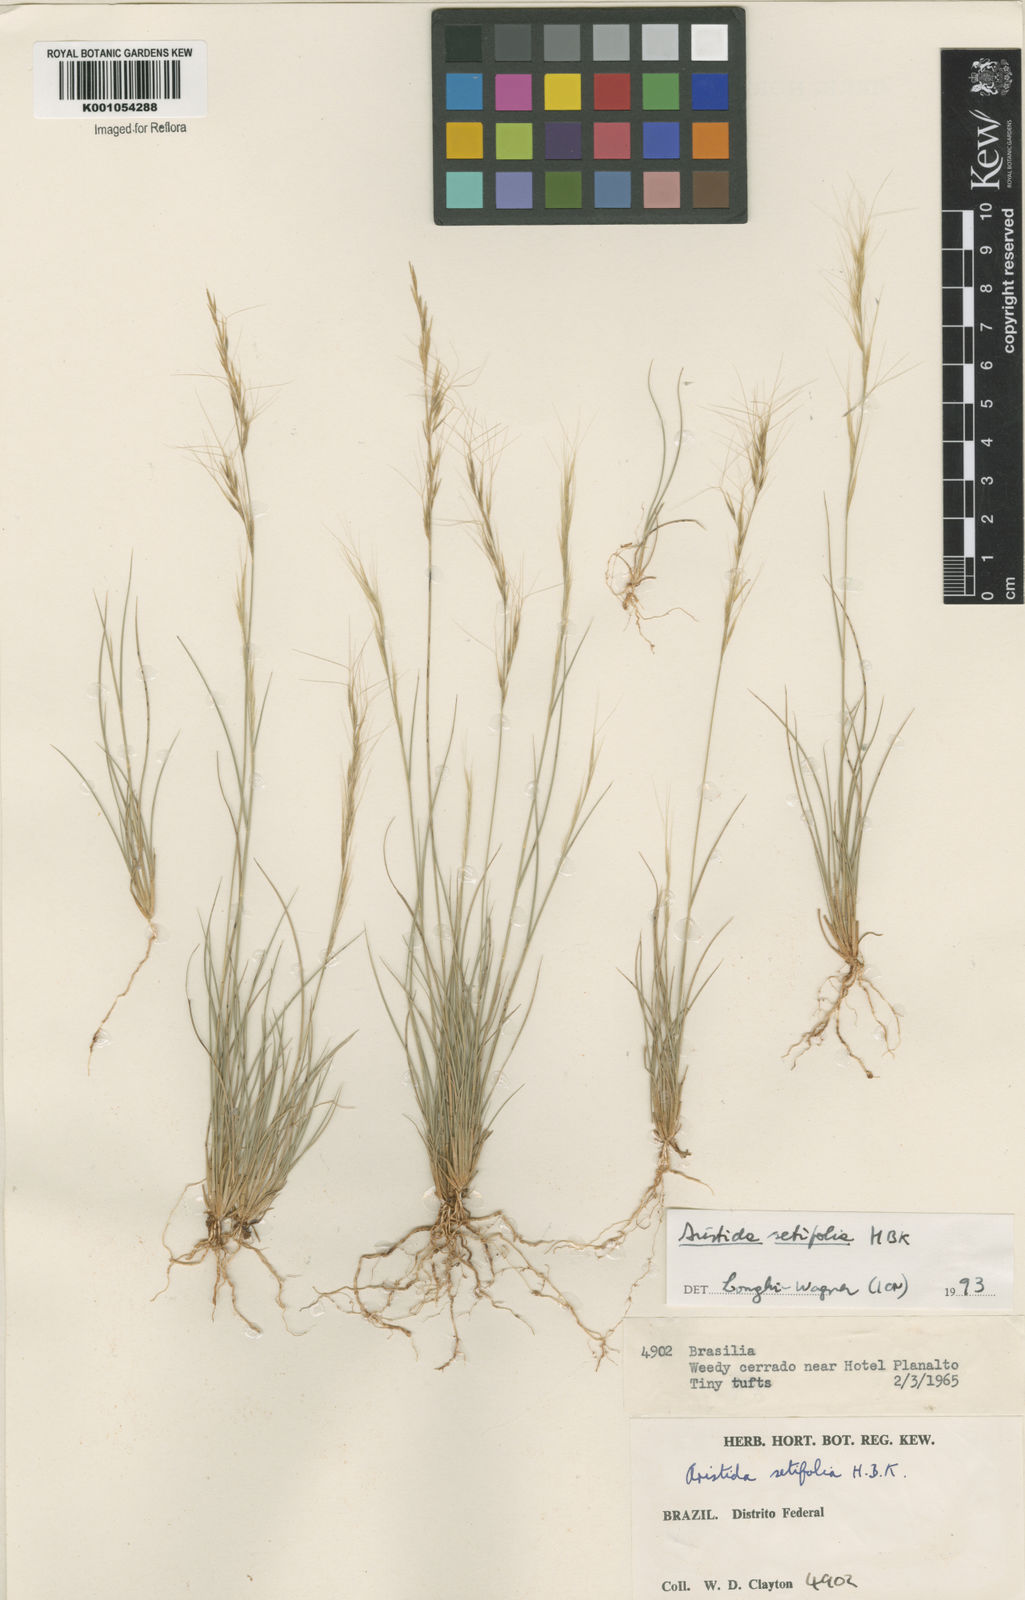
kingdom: Plantae
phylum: Tracheophyta
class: Liliopsida
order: Poales
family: Poaceae
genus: Aristida
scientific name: Aristida setifolia
